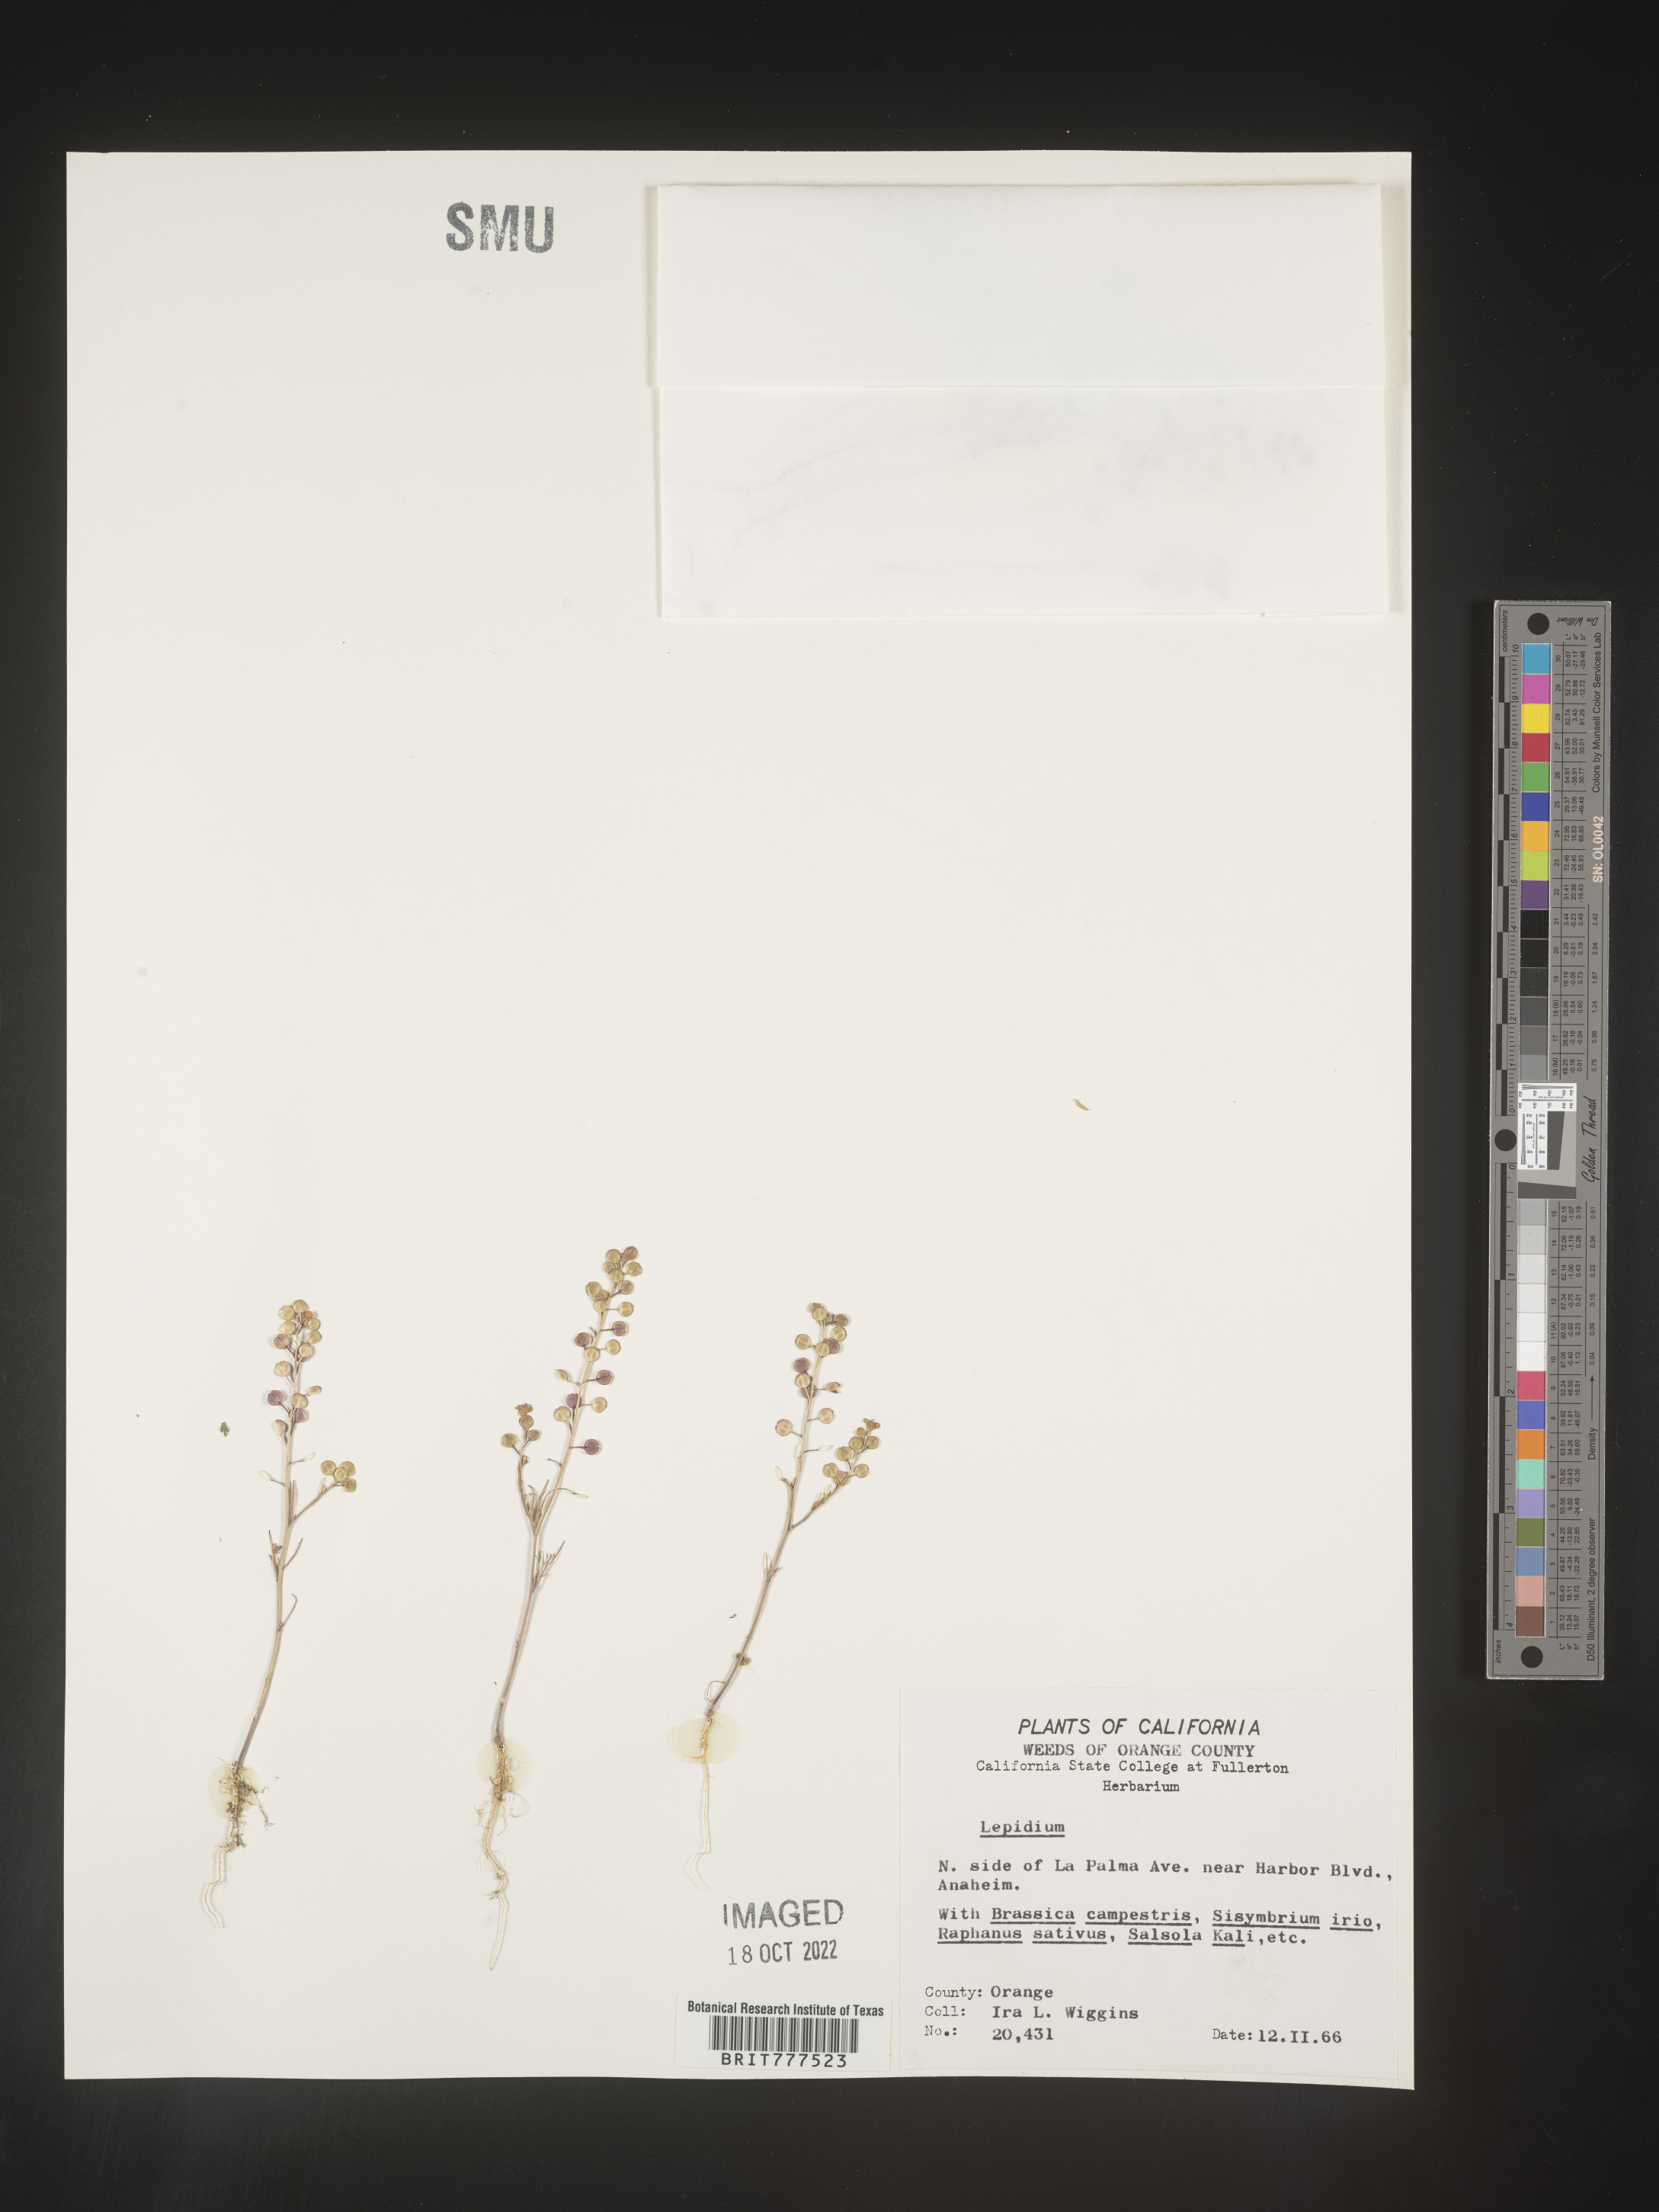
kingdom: Plantae
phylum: Tracheophyta
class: Magnoliopsida
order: Brassicales
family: Brassicaceae
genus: Lepidium
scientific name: Lepidium
